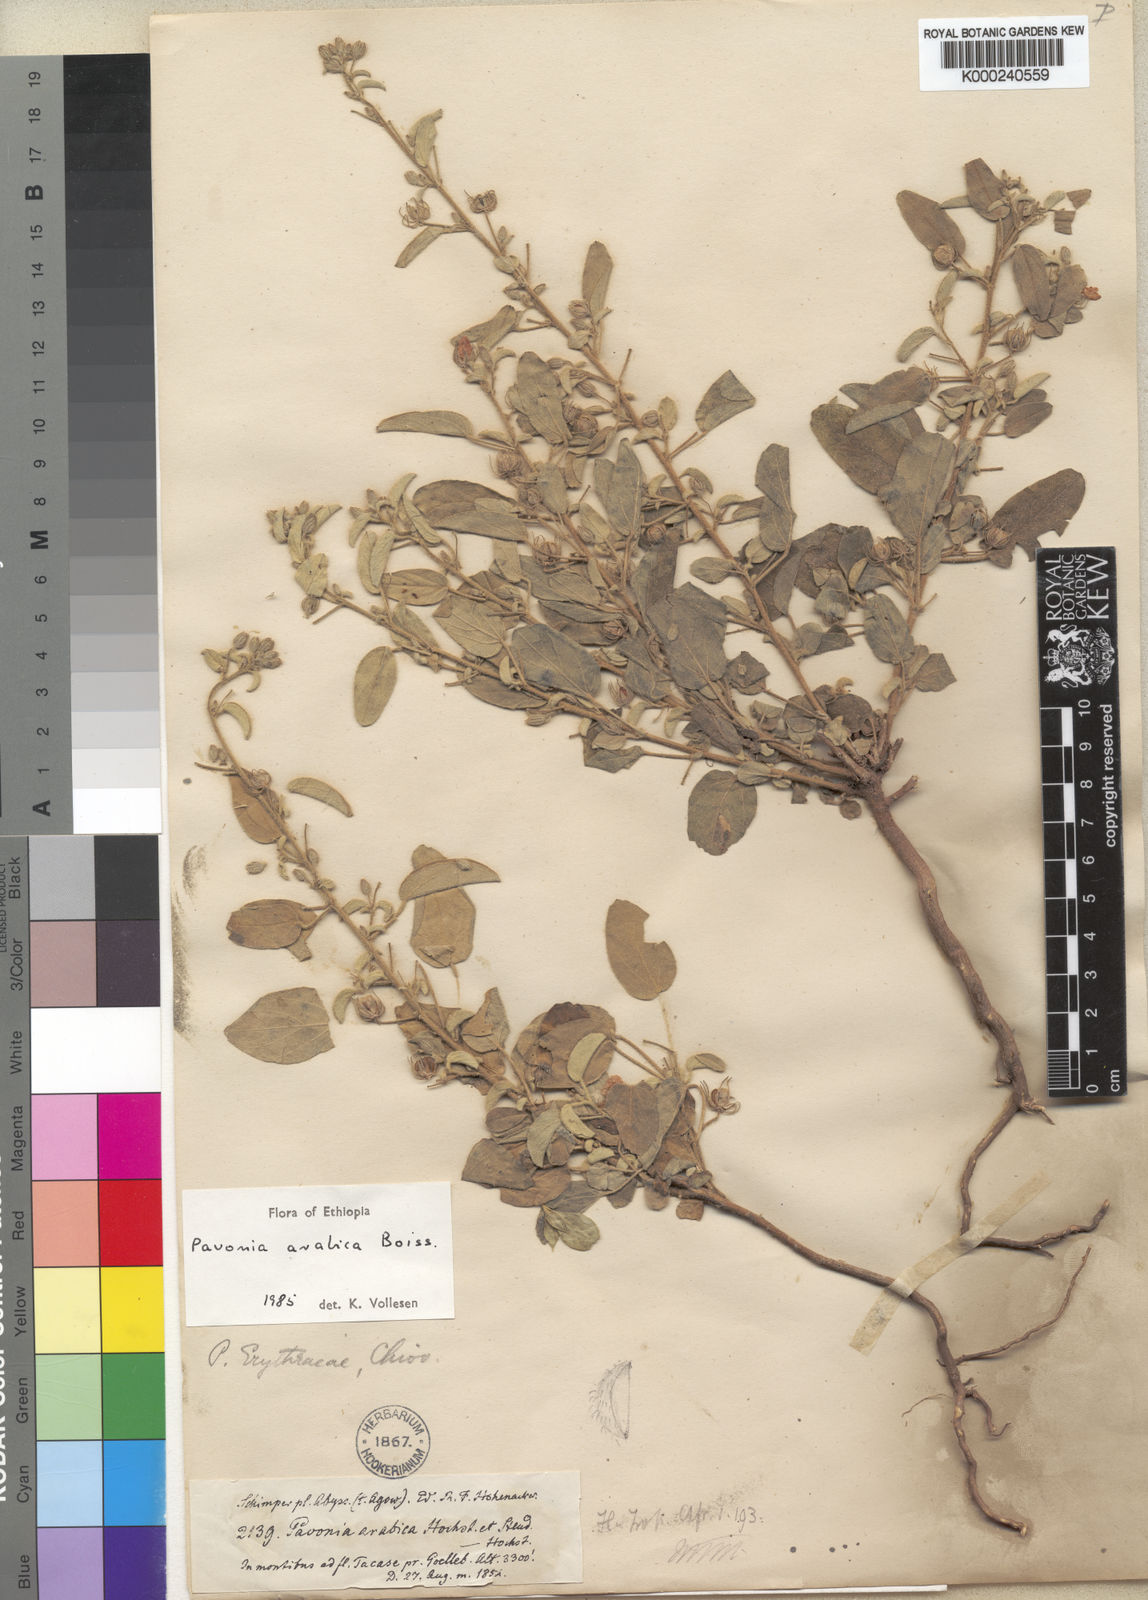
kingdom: Plantae
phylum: Tracheophyta
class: Magnoliopsida
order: Malvales
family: Malvaceae
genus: Pavonia
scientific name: Pavonia arabica
